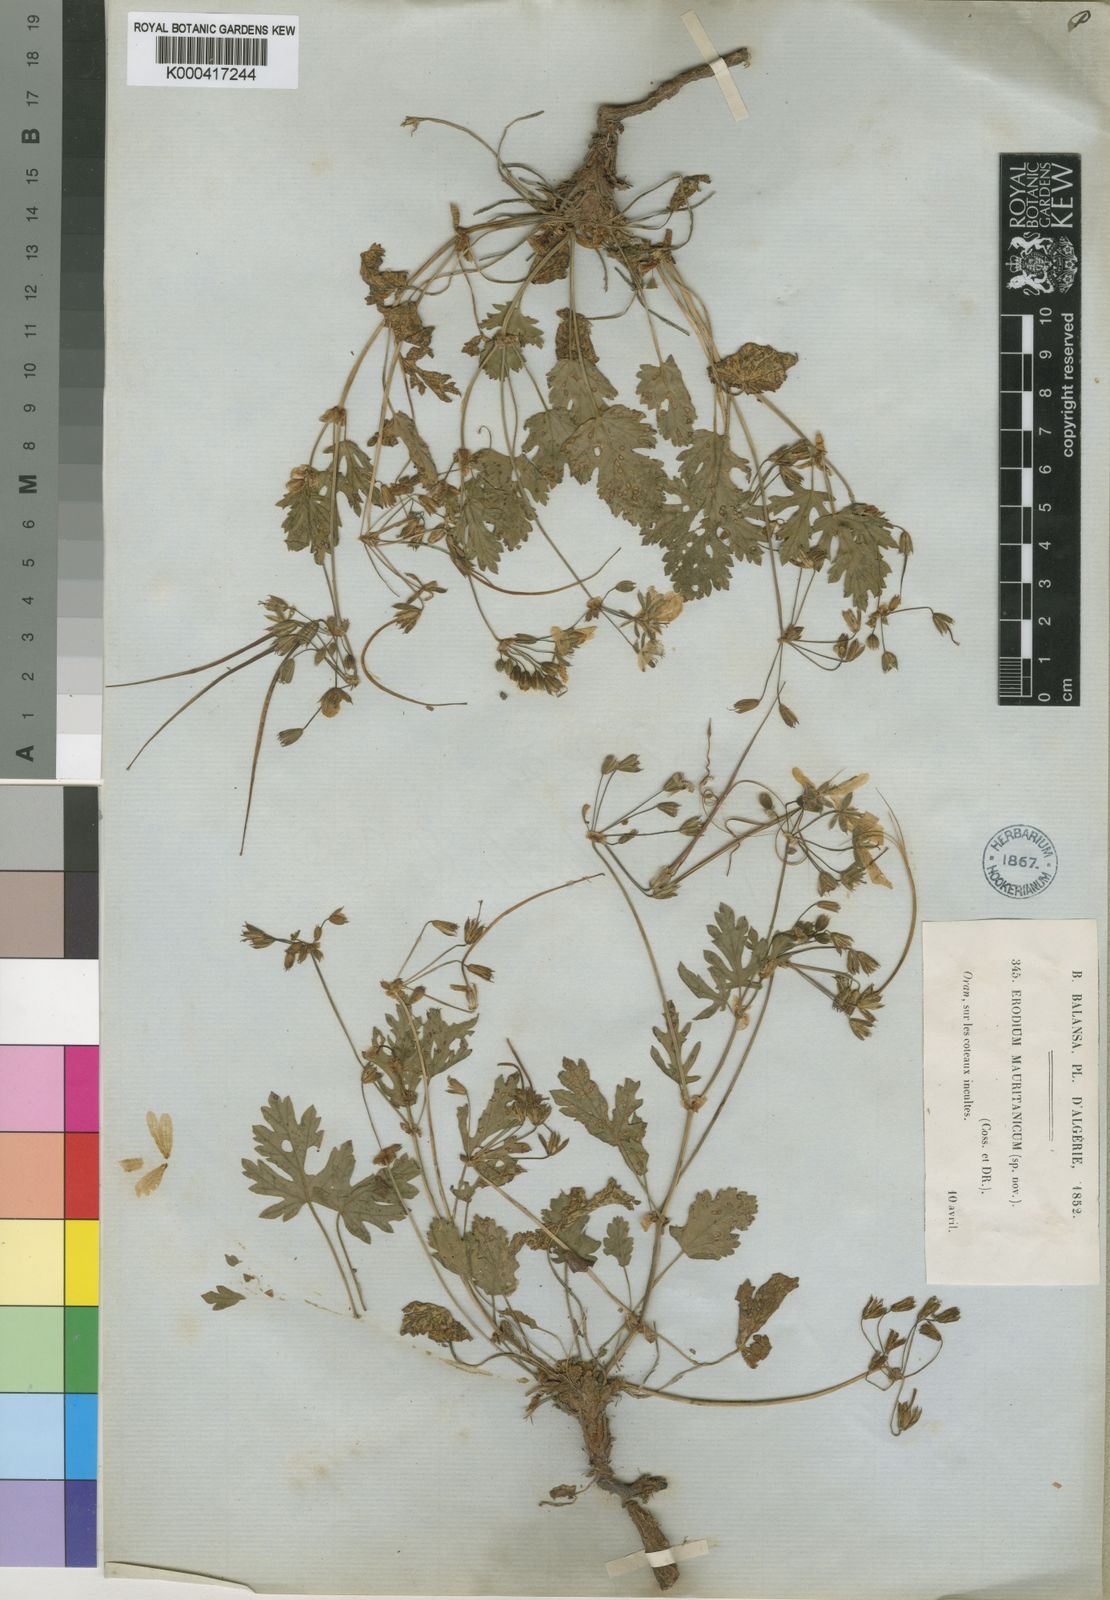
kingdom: Plantae
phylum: Tracheophyta
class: Magnoliopsida
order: Geraniales
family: Geraniaceae
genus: Erodium
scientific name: Erodium munbyanum
